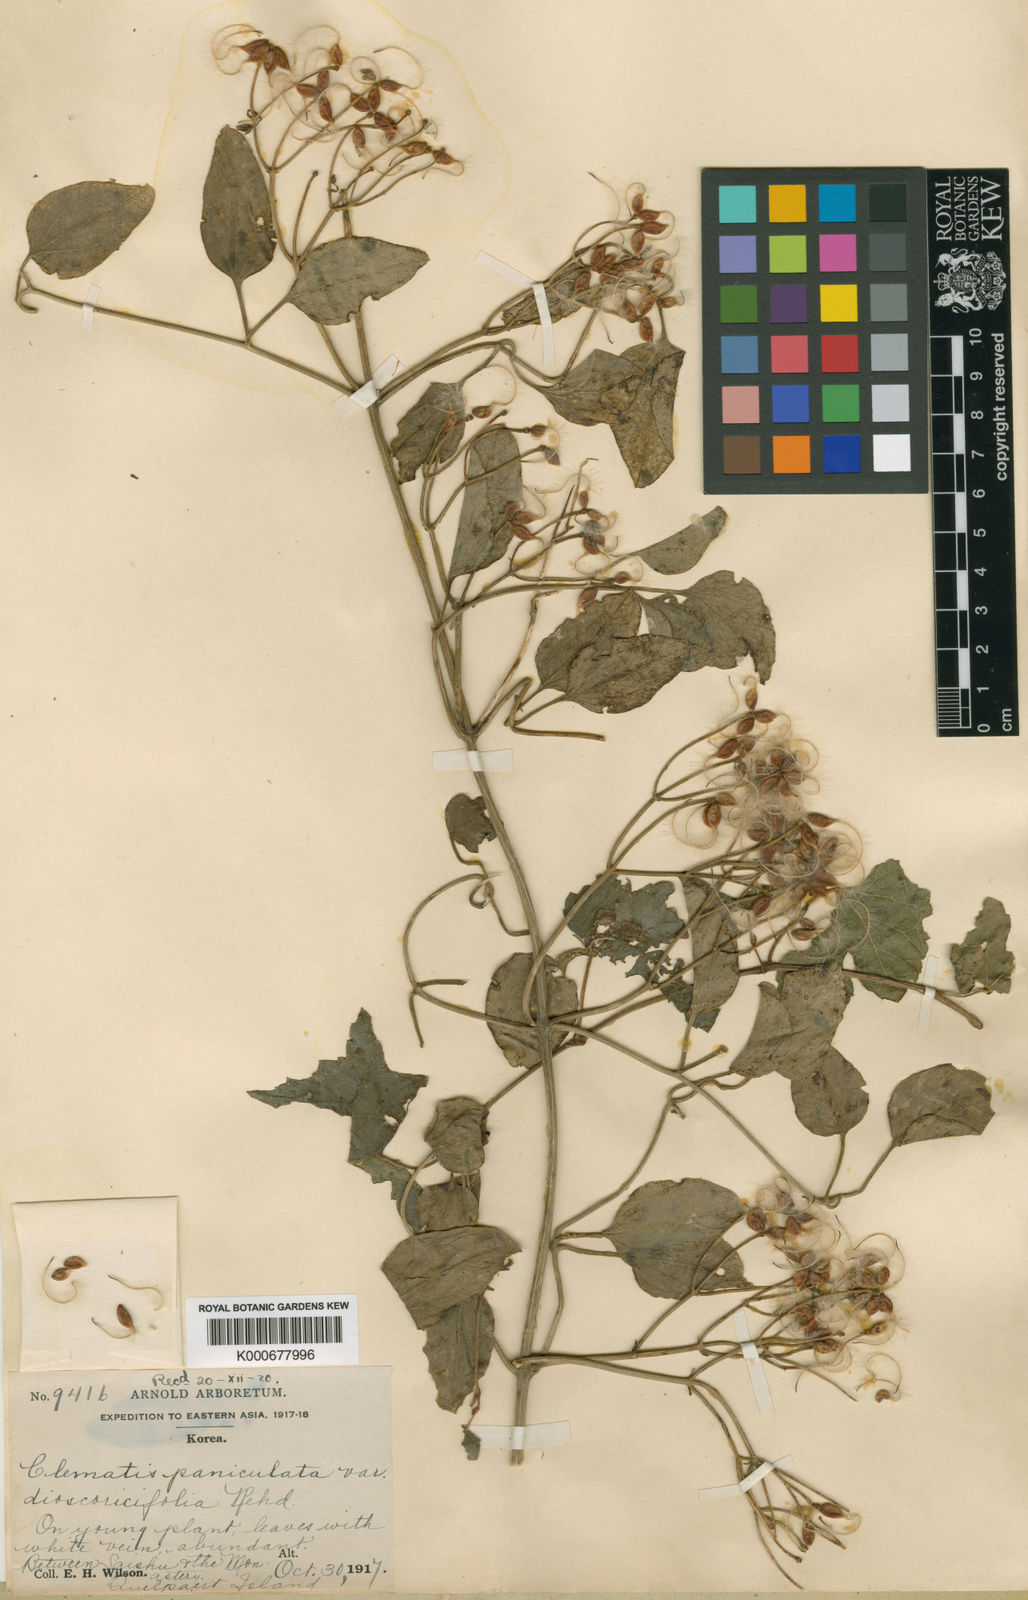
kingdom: Plantae
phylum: Tracheophyta
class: Magnoliopsida
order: Ranunculales
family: Ranunculaceae
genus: Clematis
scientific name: Clematis terniflora
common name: Sweet autumn clematis
